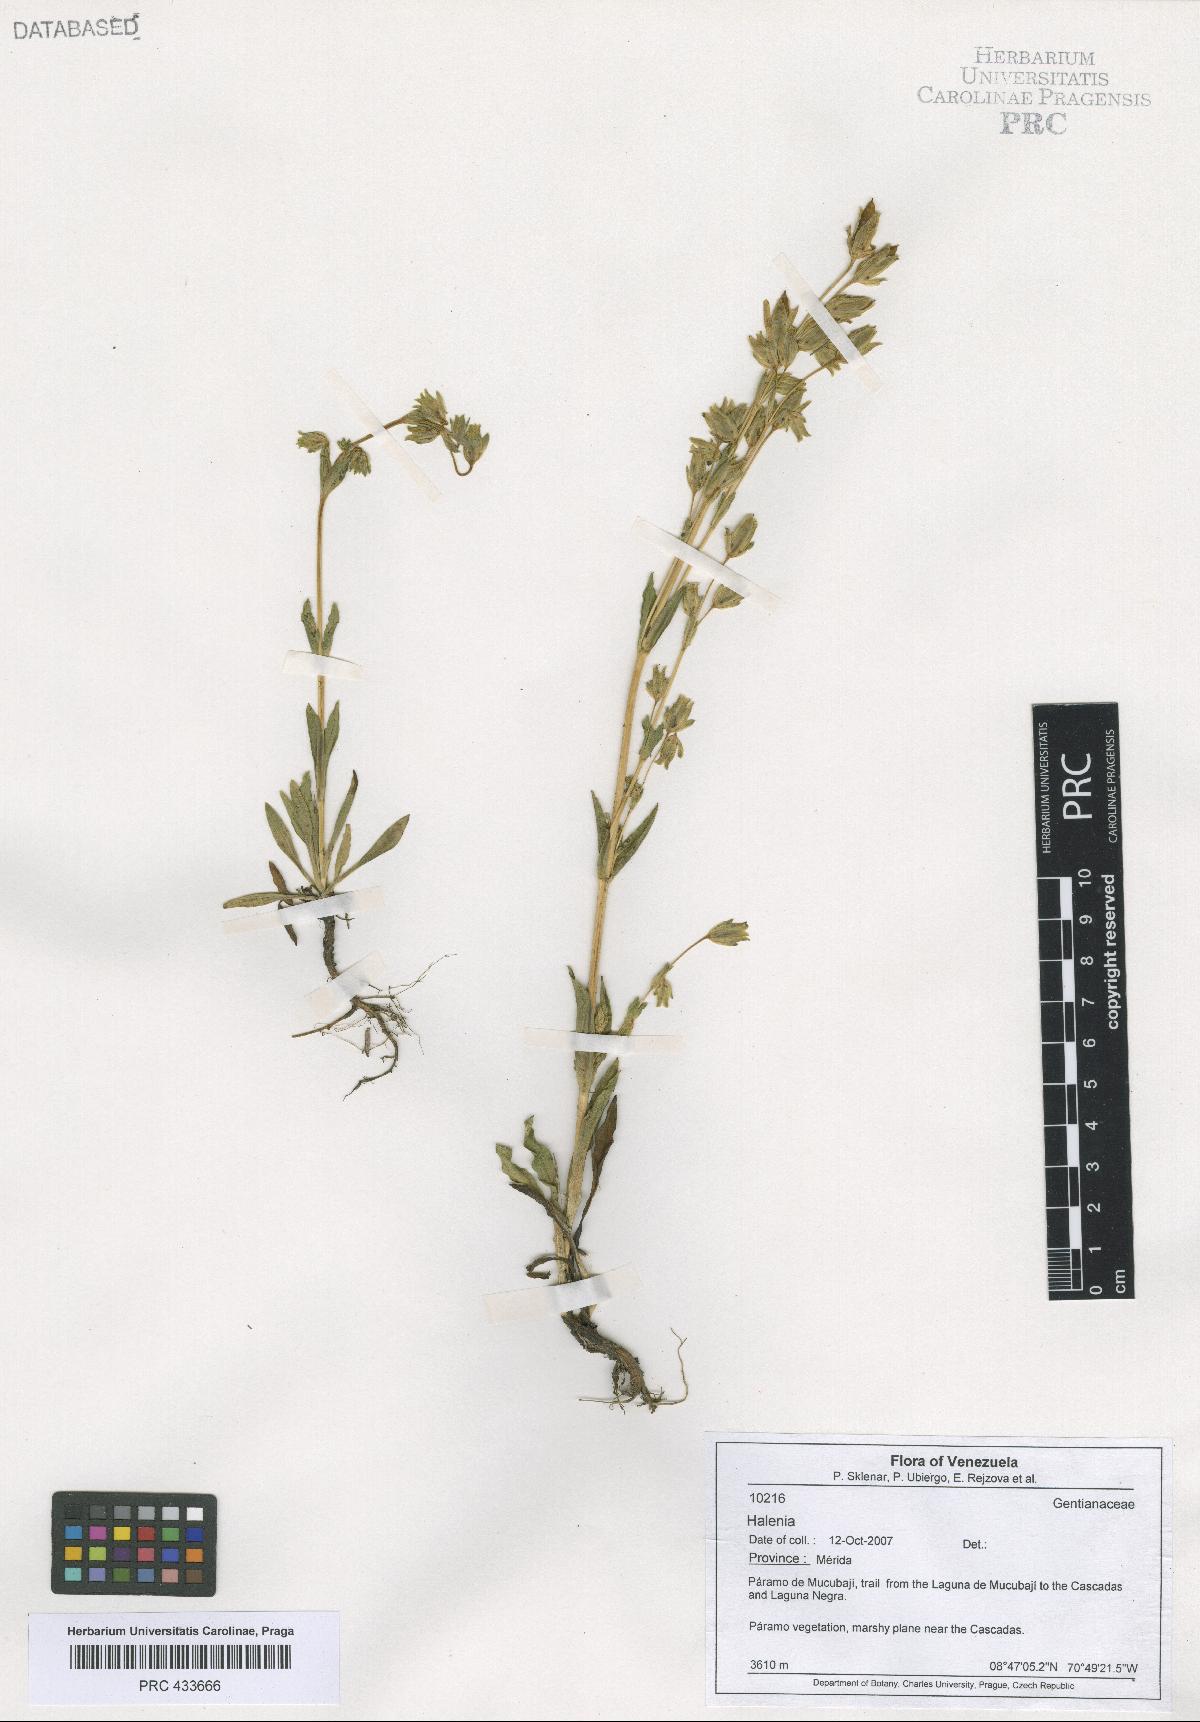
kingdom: Plantae
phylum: Tracheophyta
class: Magnoliopsida
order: Gentianales
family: Gentianaceae
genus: Halenia
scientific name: Halenia
